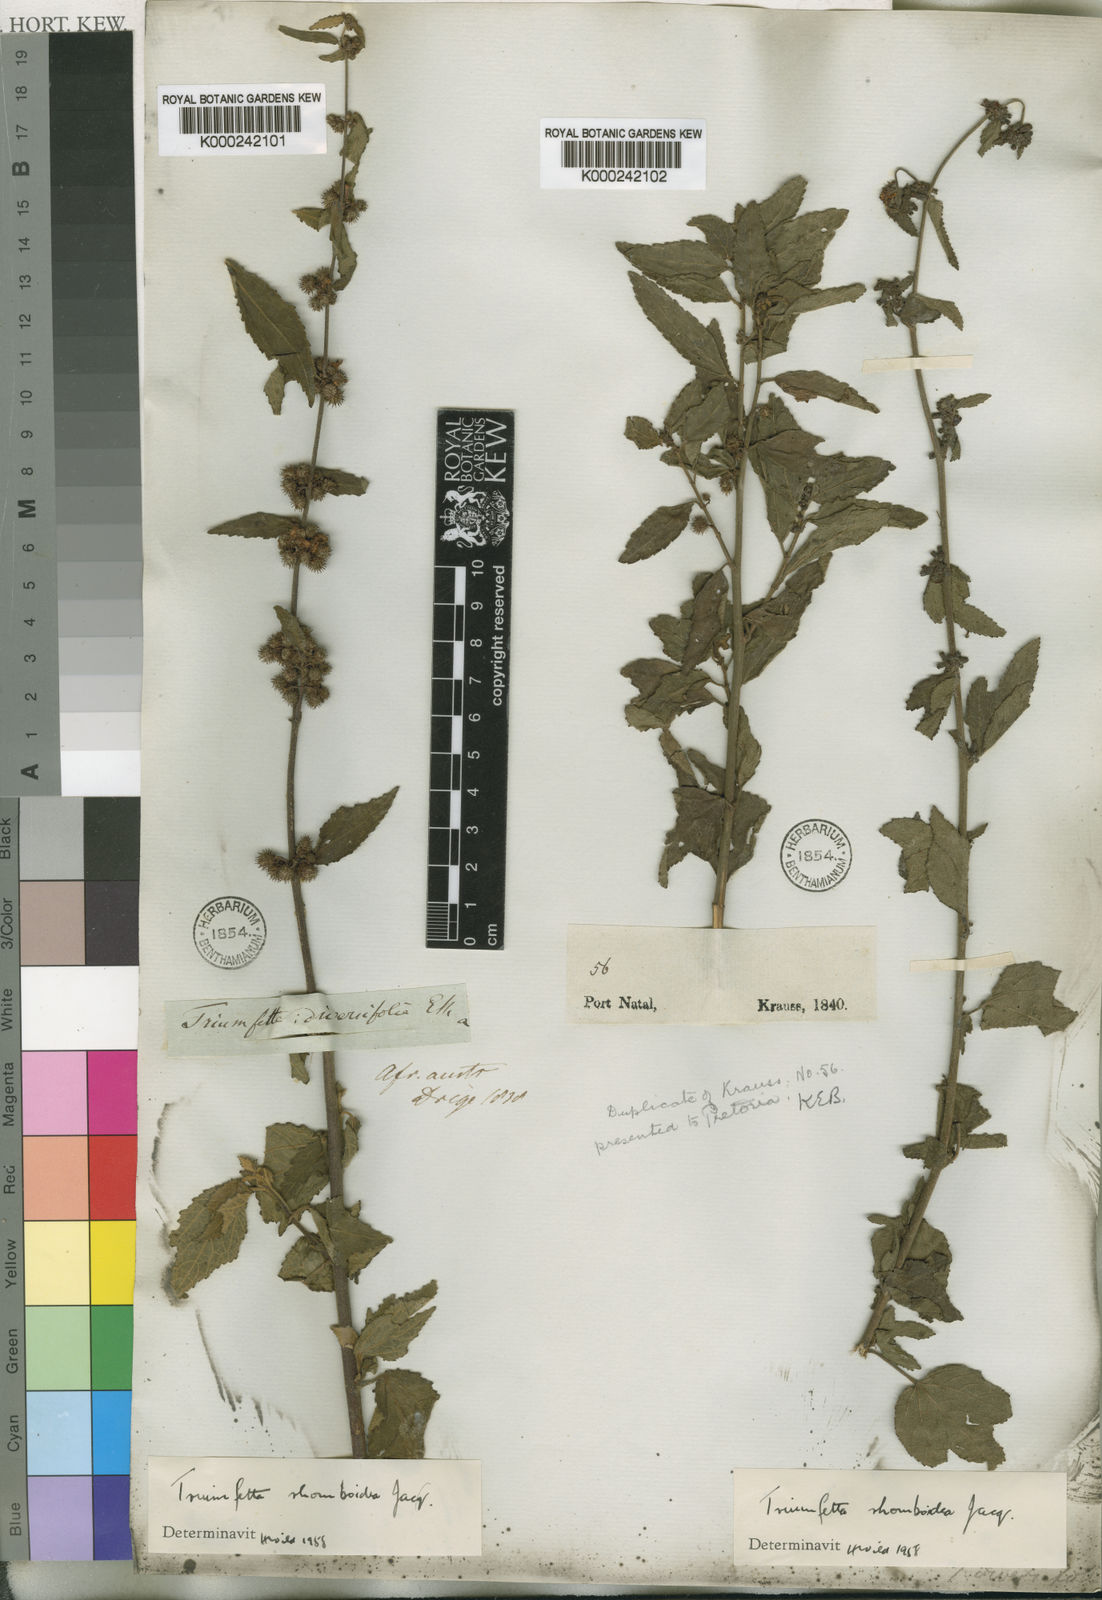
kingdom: Plantae
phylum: Tracheophyta
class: Magnoliopsida
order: Malvales
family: Malvaceae
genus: Triumfetta
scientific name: Triumfetta rhomboidea
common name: Diamond burbark
